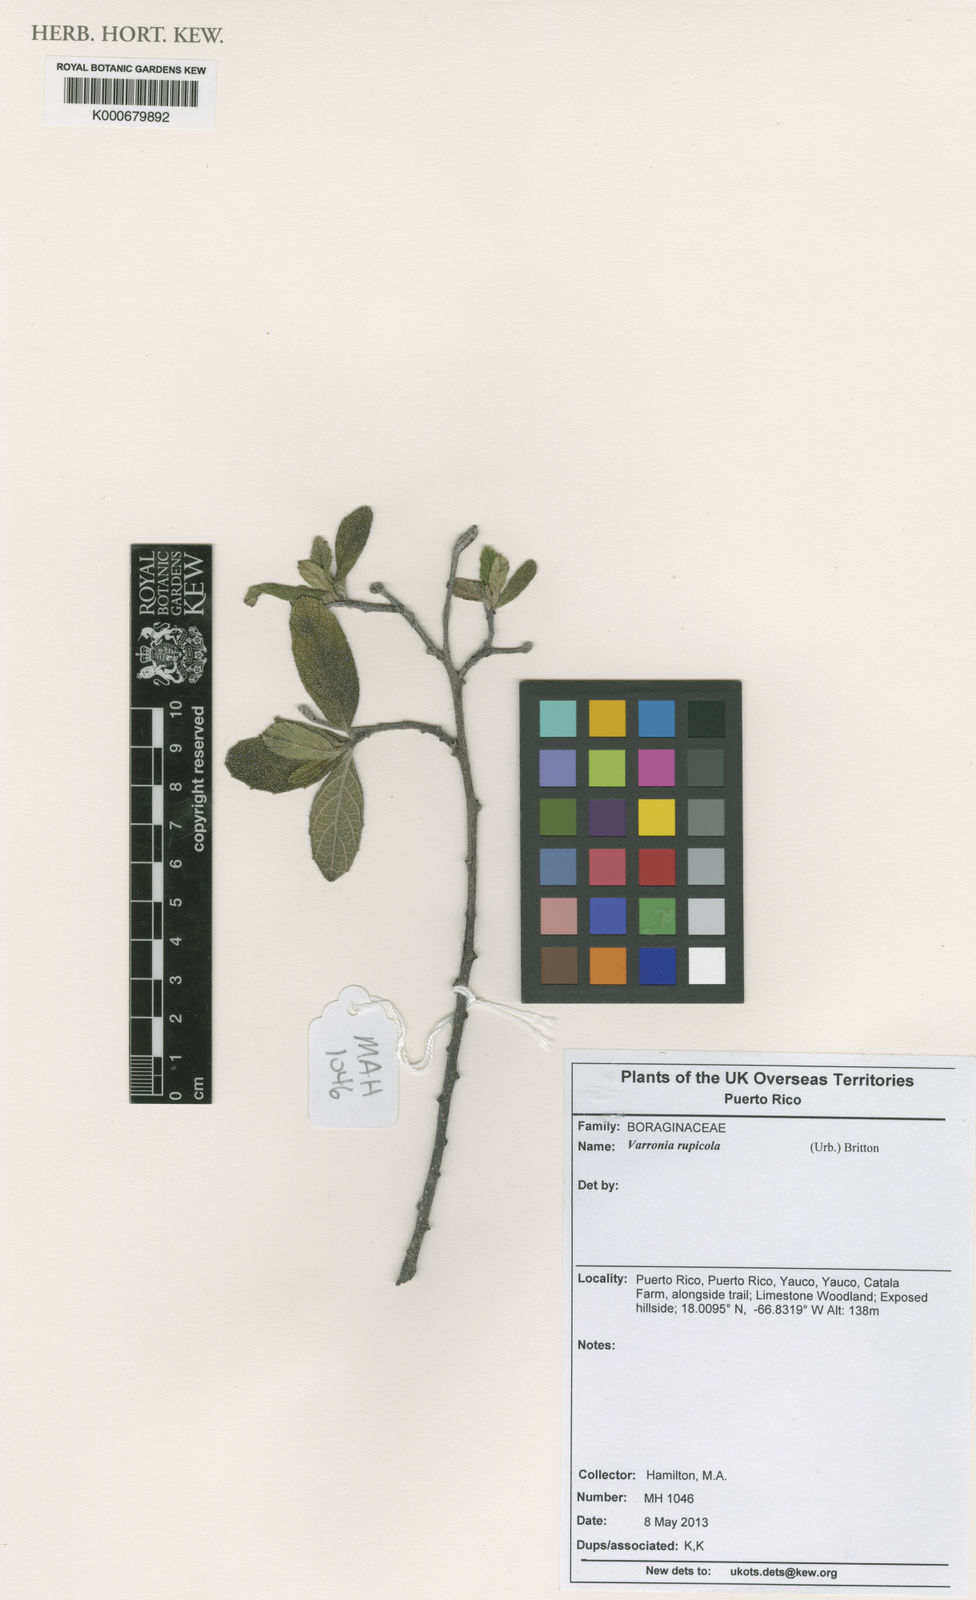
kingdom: Plantae
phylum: Tracheophyta
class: Magnoliopsida
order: Boraginales
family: Cordiaceae
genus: Varronia
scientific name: Varronia rupicola
